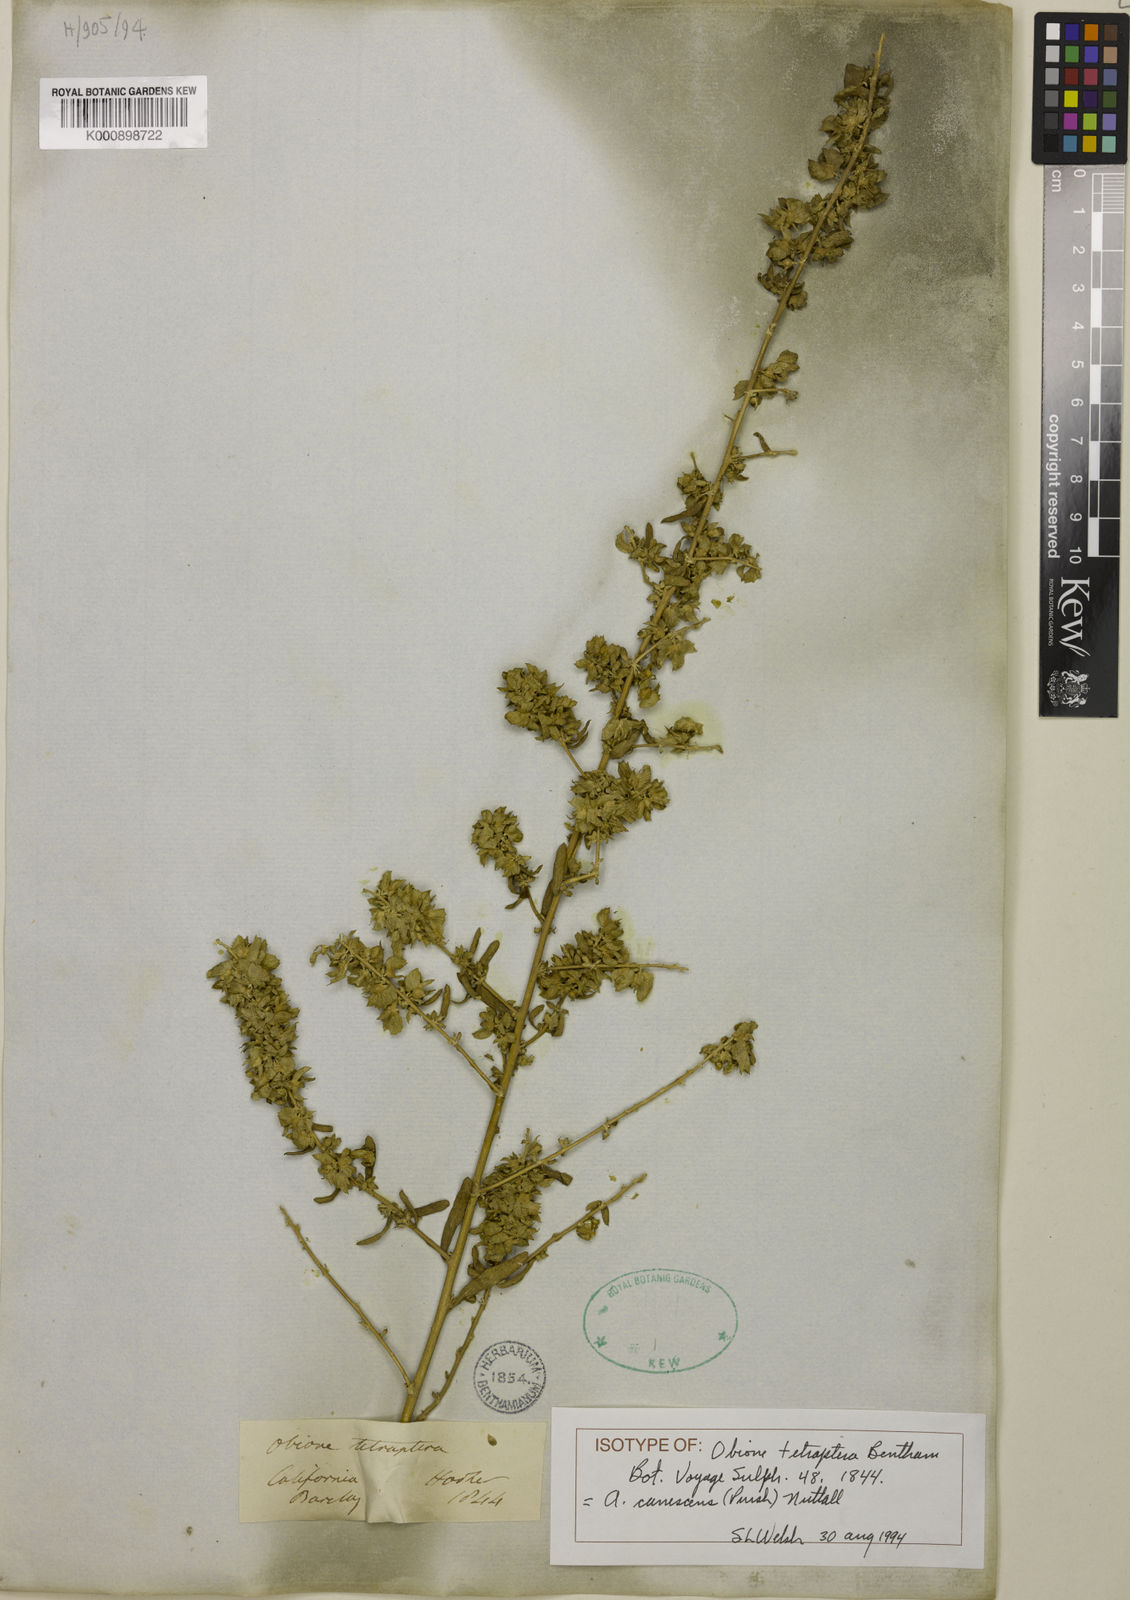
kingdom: Plantae
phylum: Tracheophyta
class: Magnoliopsida
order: Caryophyllales
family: Amaranthaceae
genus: Atriplex
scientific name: Atriplex canescens
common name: Four-wing saltbush
